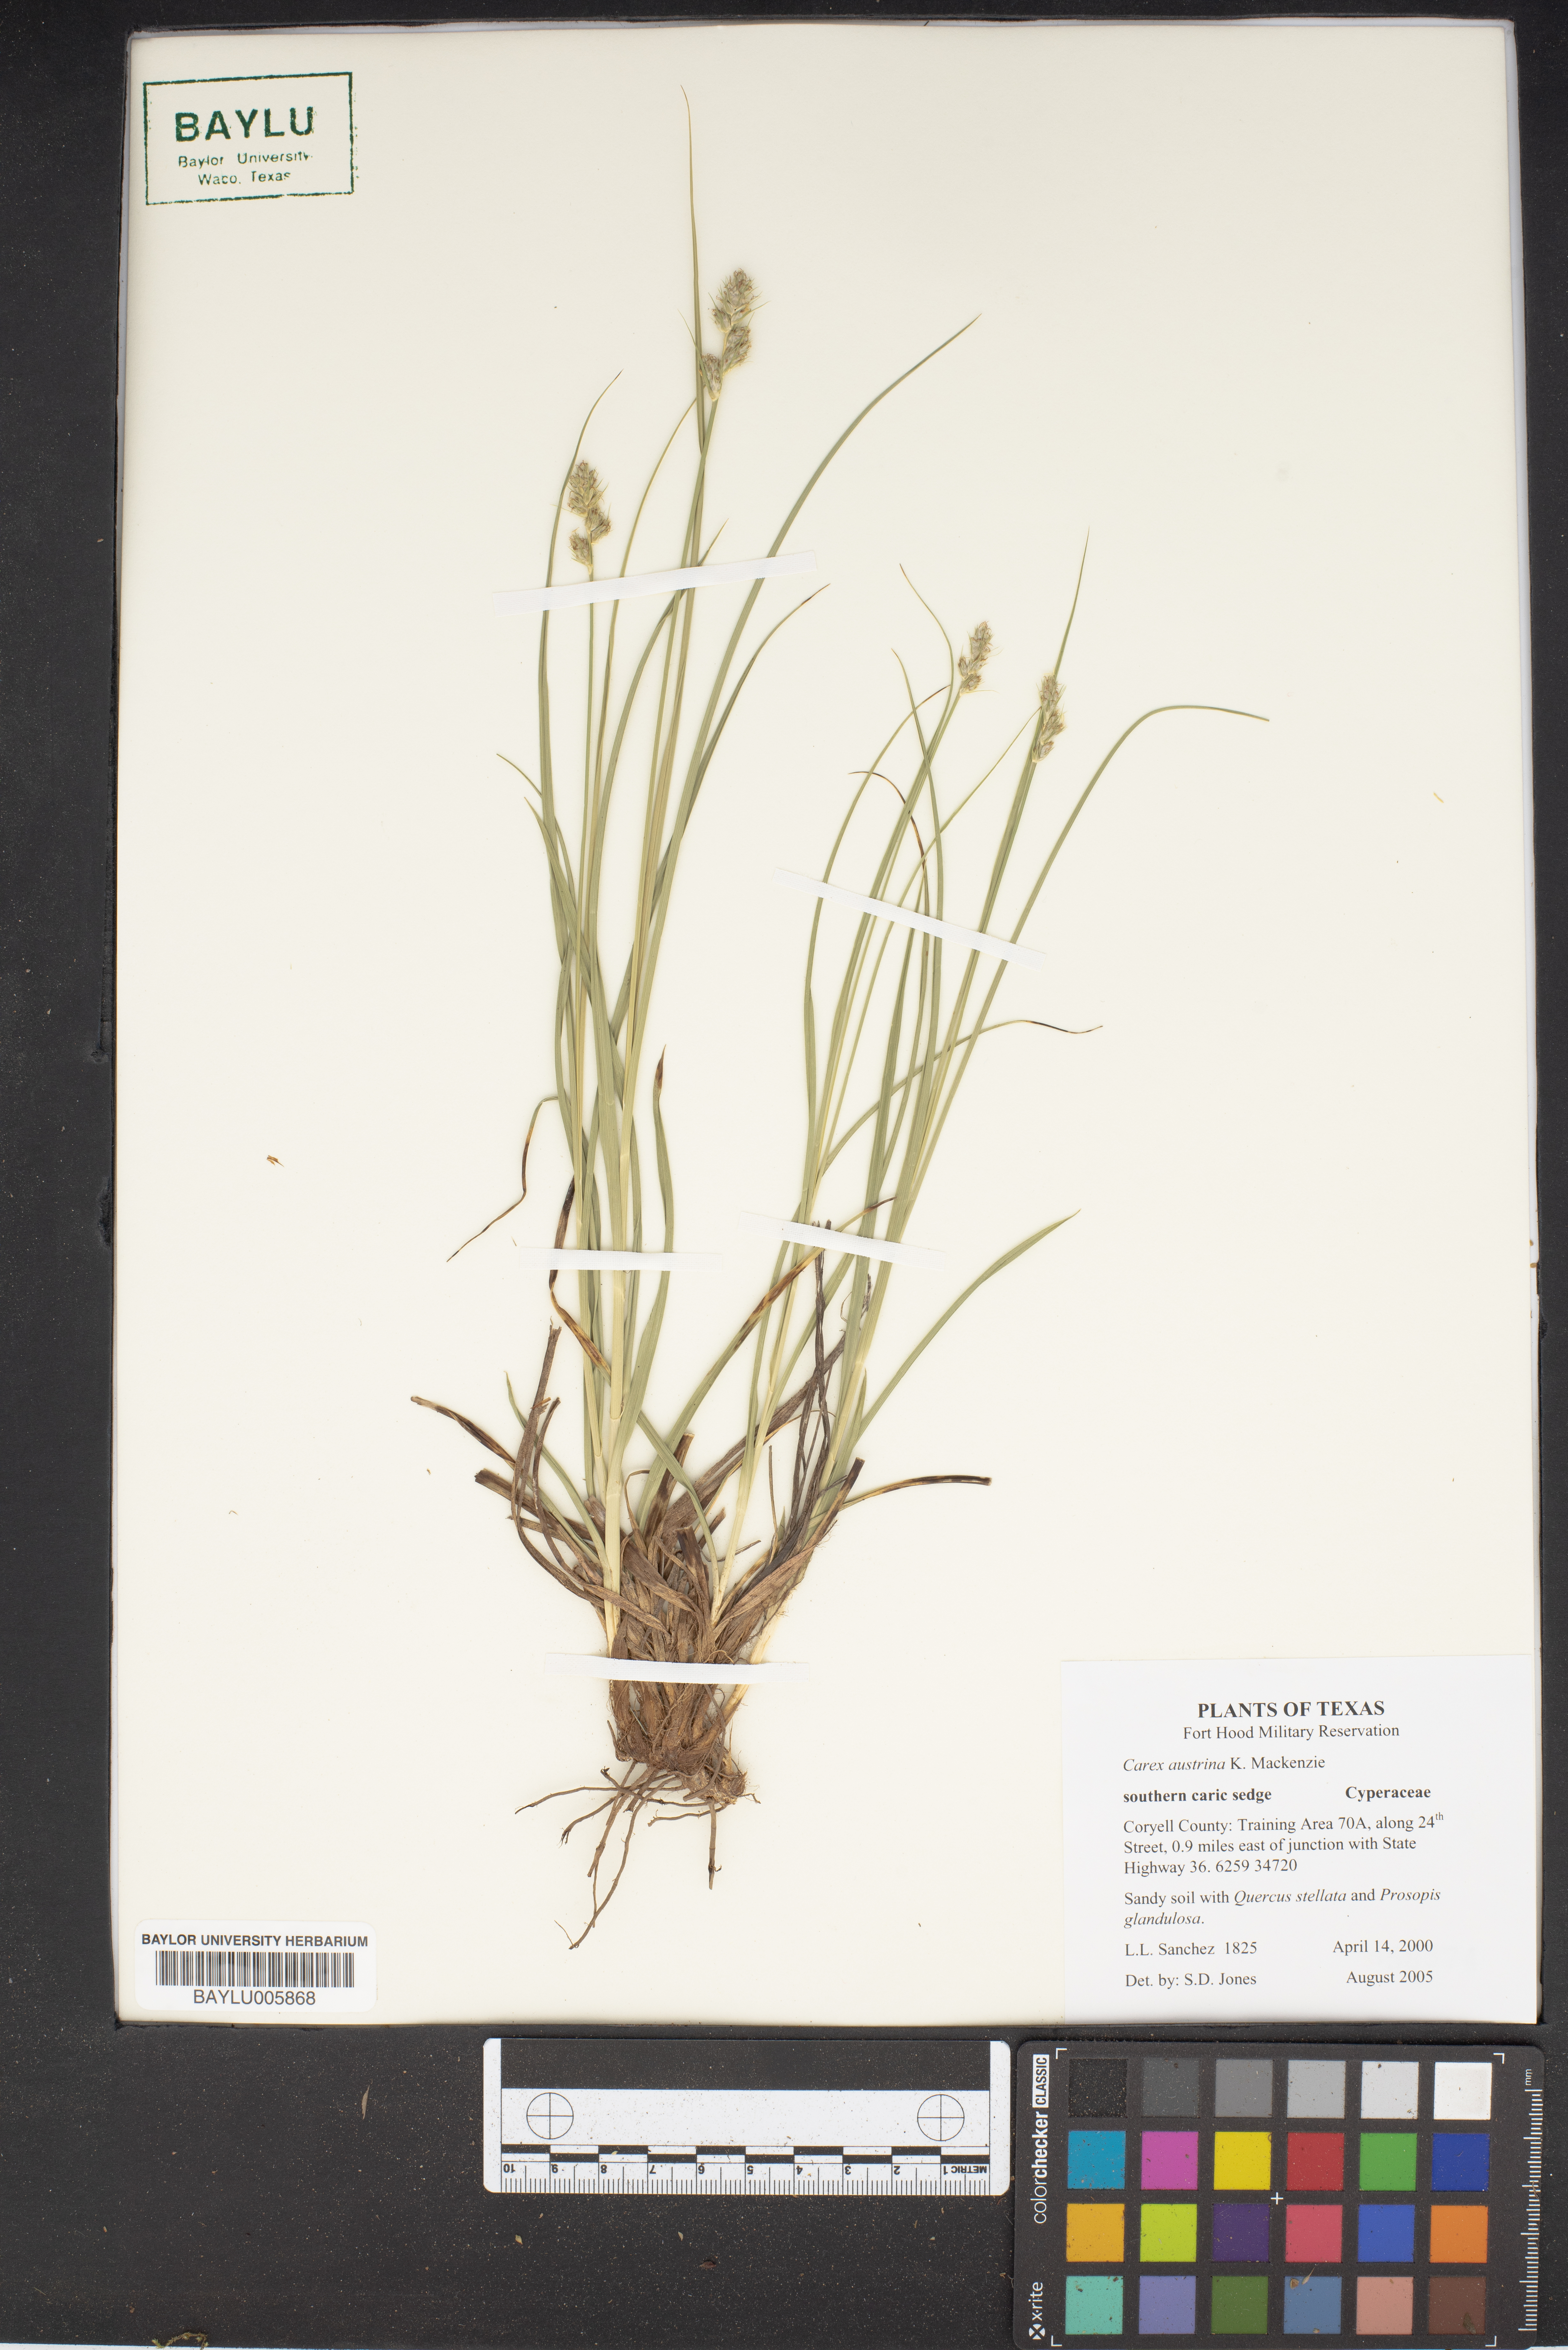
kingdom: Plantae
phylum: Tracheophyta
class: Liliopsida
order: Poales
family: Cyperaceae
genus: Carex
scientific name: Carex austrina
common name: Southern sedge
